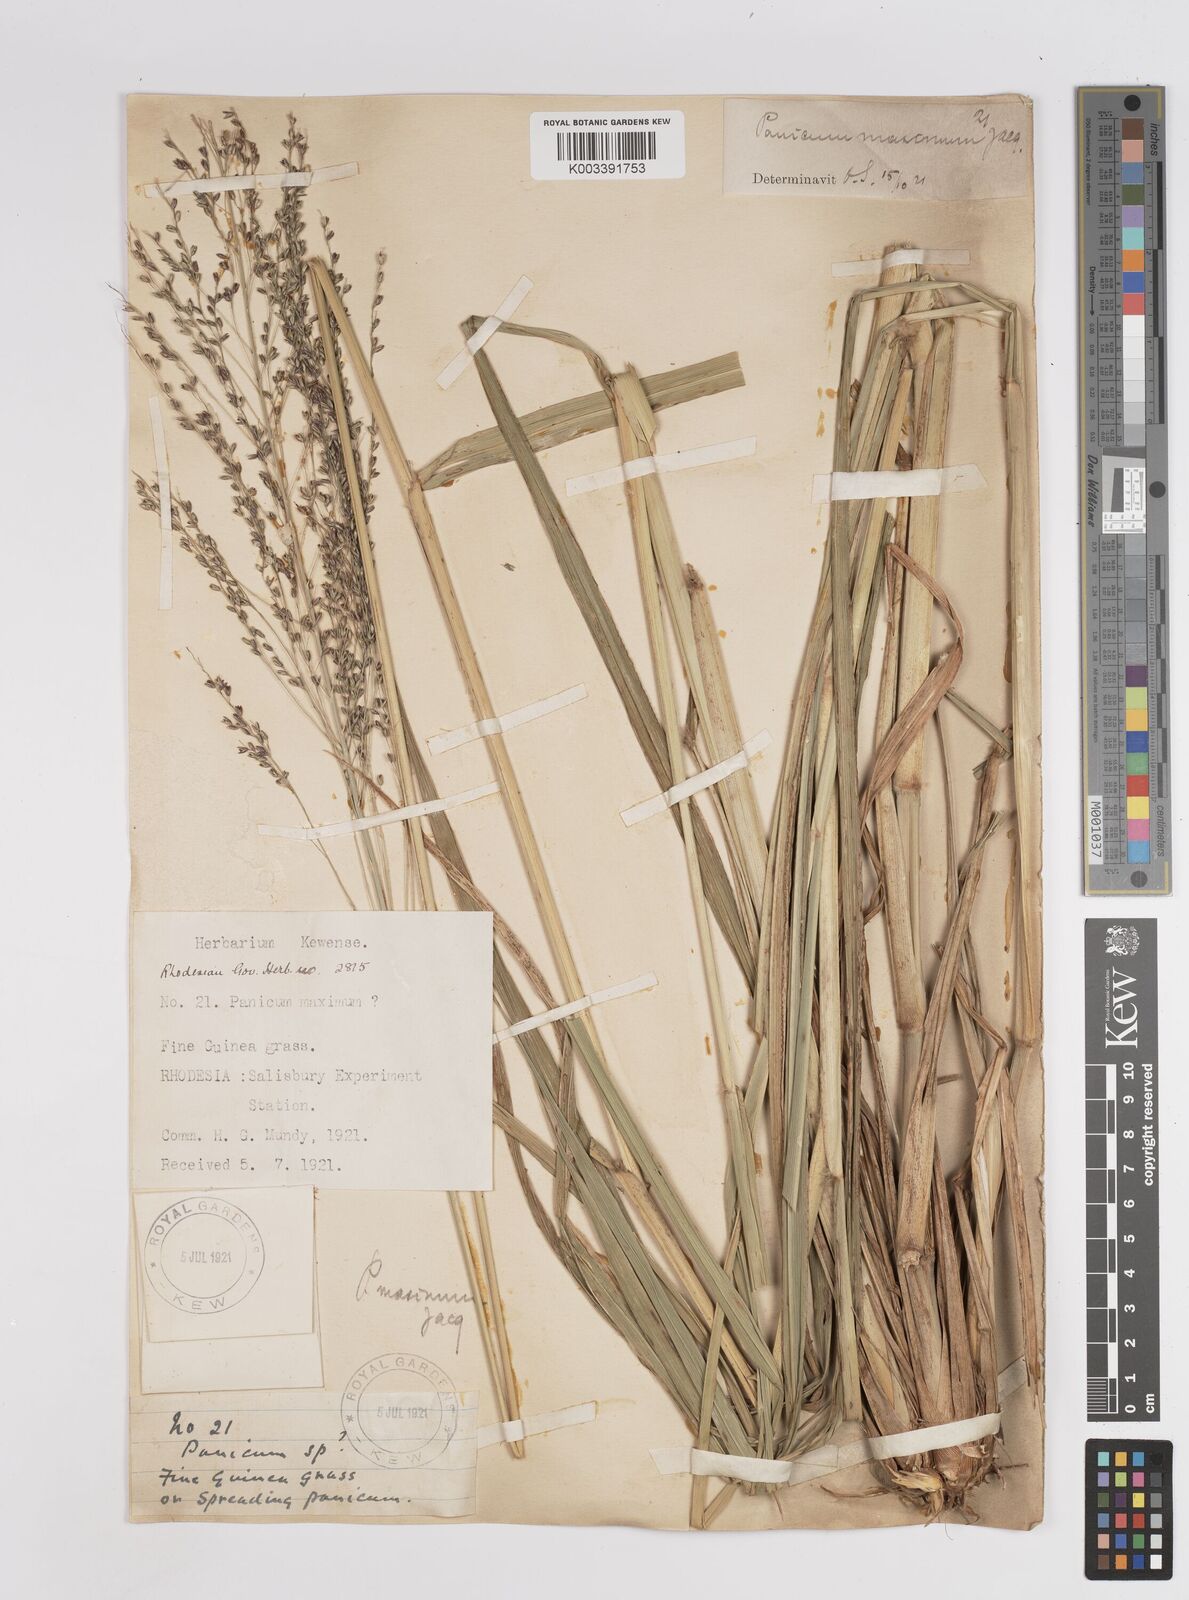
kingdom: Plantae
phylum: Tracheophyta
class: Liliopsida
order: Poales
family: Poaceae
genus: Megathyrsus
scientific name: Megathyrsus maximus
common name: Guineagrass
